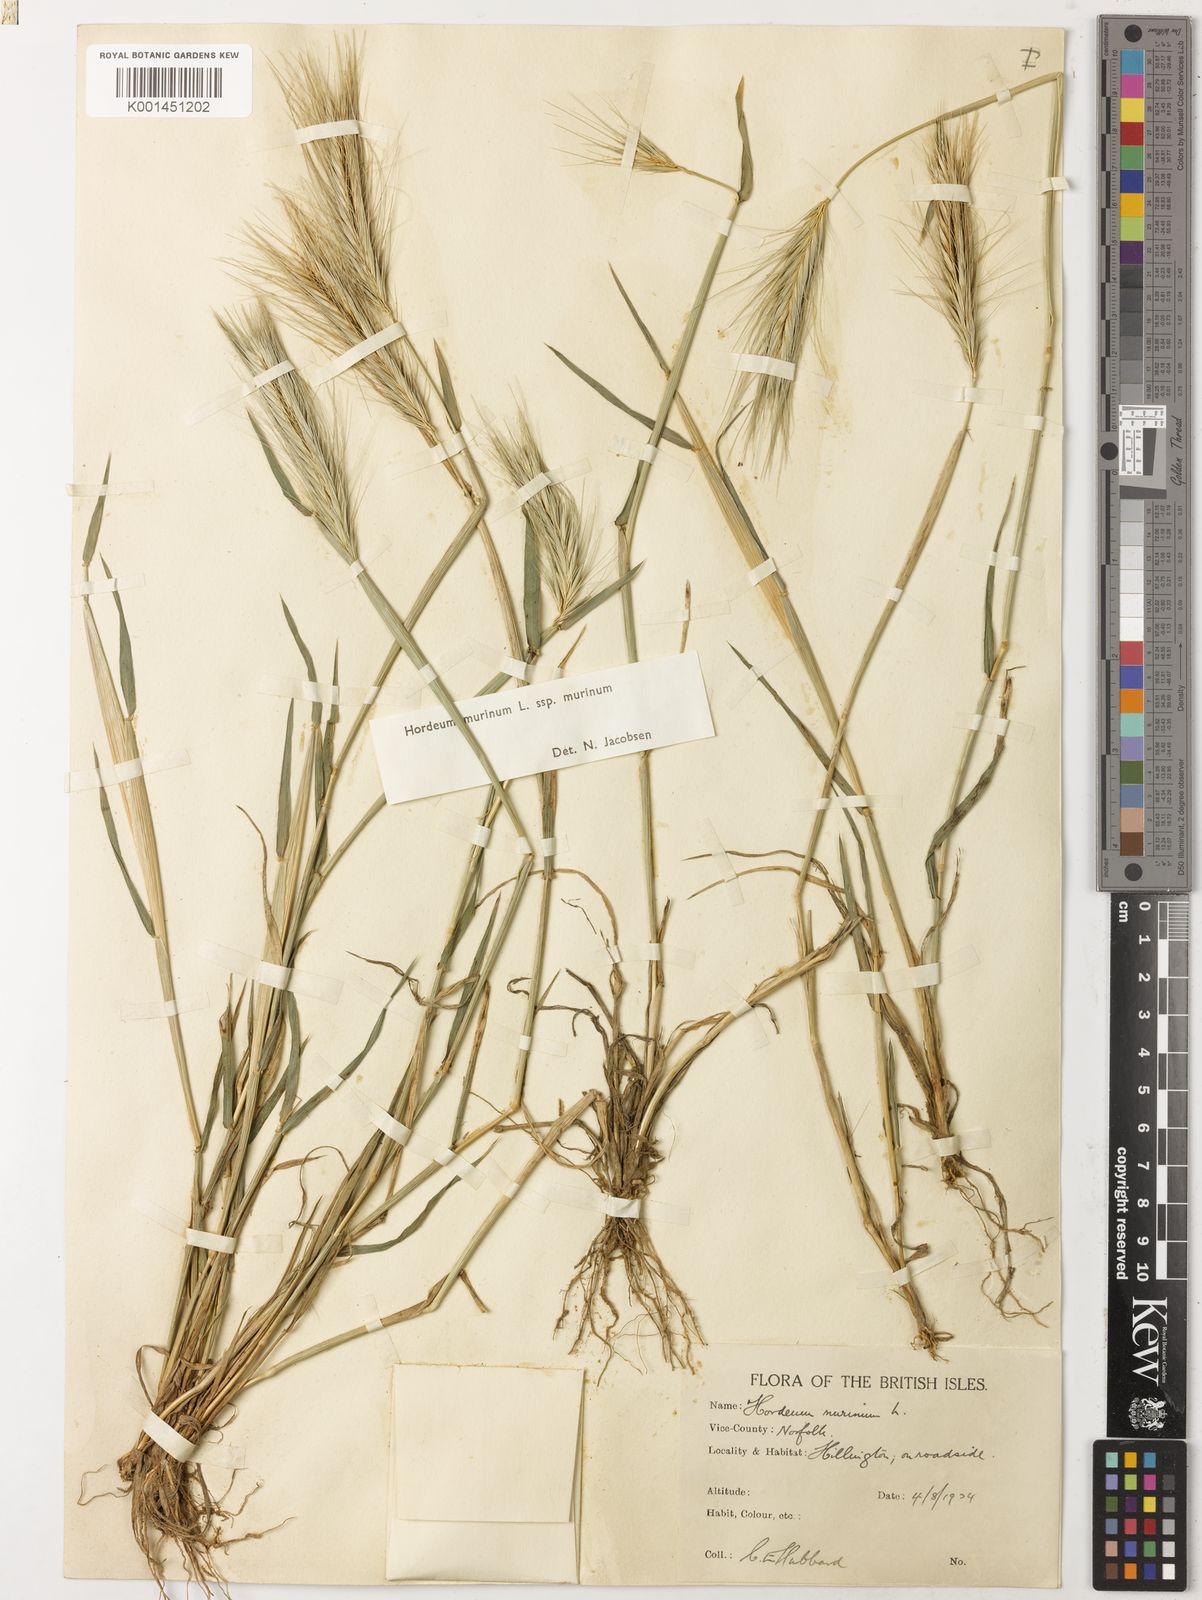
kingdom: Plantae
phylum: Tracheophyta
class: Liliopsida
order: Poales
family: Poaceae
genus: Hordeum
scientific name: Hordeum murinum
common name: Wall barley
